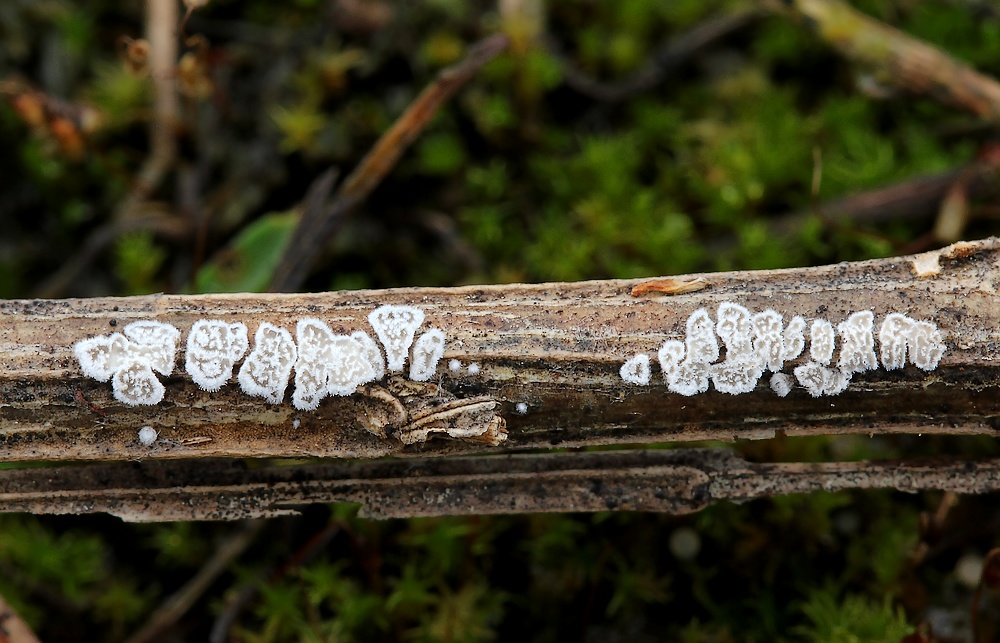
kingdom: Fungi
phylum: Basidiomycota
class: Agaricomycetes
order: Agaricales
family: Physalacriaceae
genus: Cylindrobasidium
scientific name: Cylindrobasidium evolvens
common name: sprækkehinde
